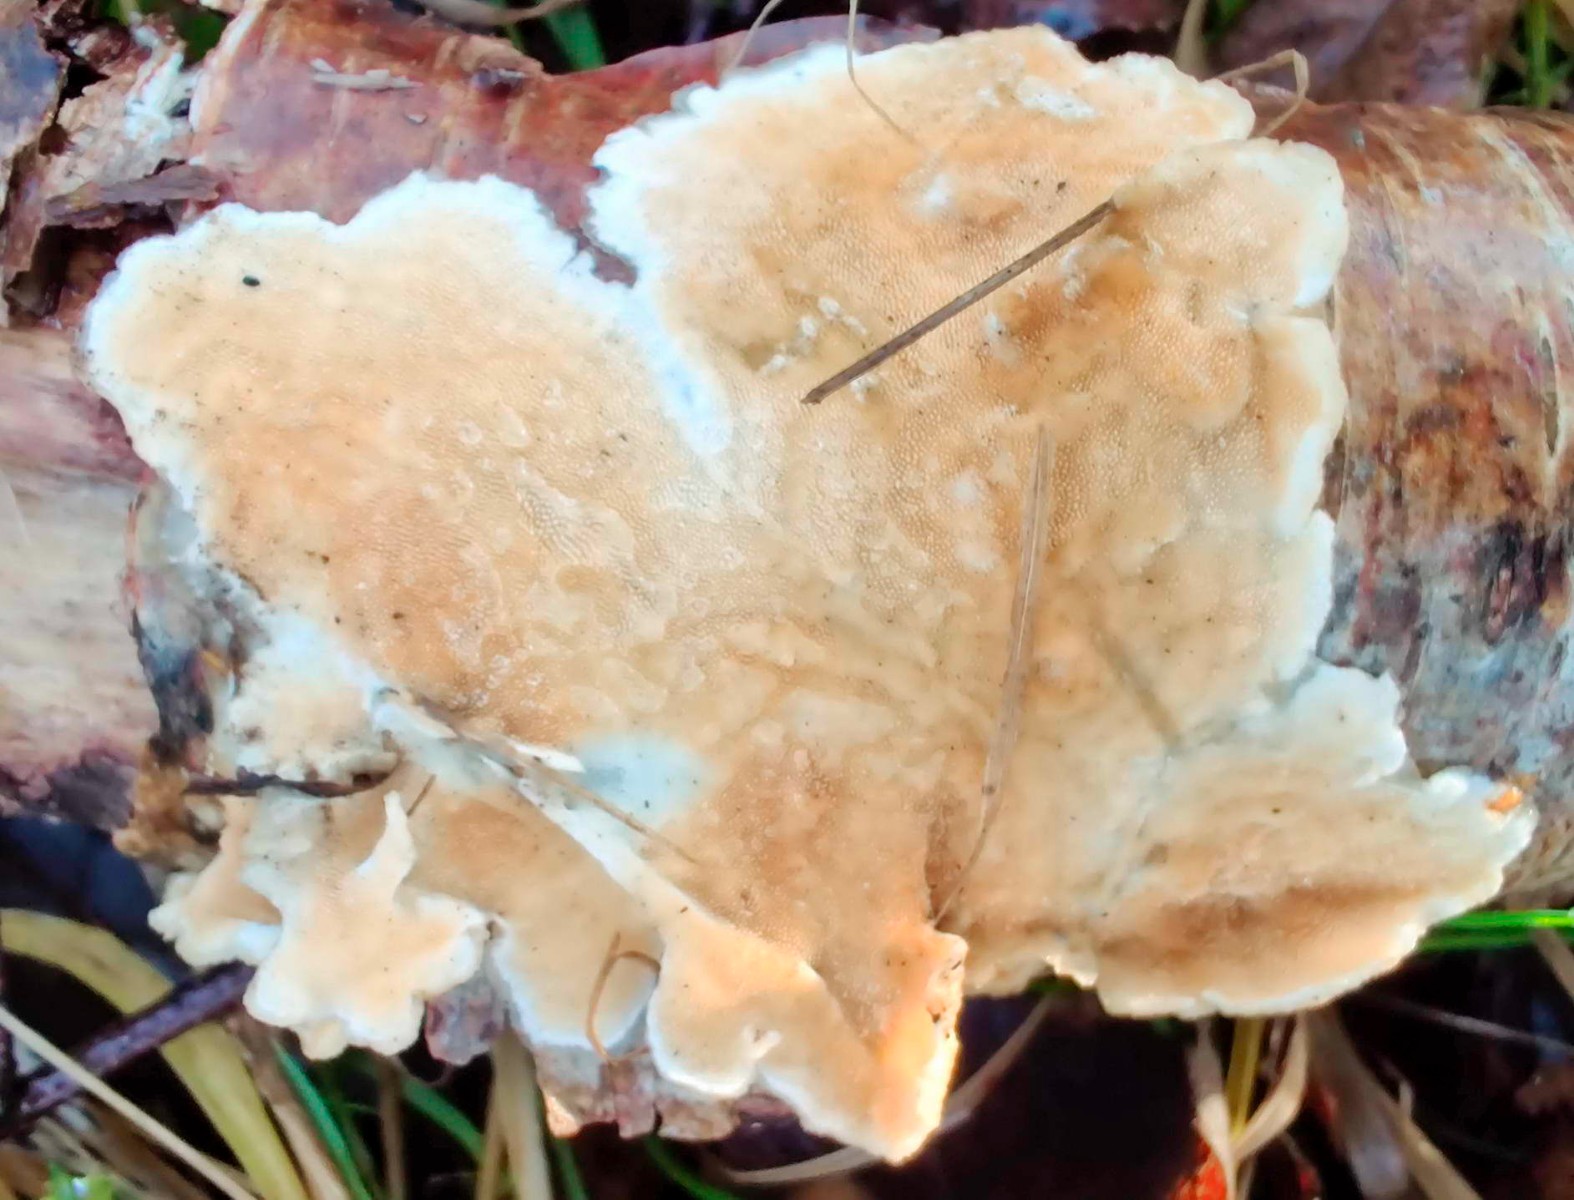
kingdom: Fungi
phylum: Basidiomycota
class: Agaricomycetes
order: Polyporales
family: Steccherinaceae
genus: Steccherinum
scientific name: Steccherinum ochraceum
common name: almindelig skønpig
